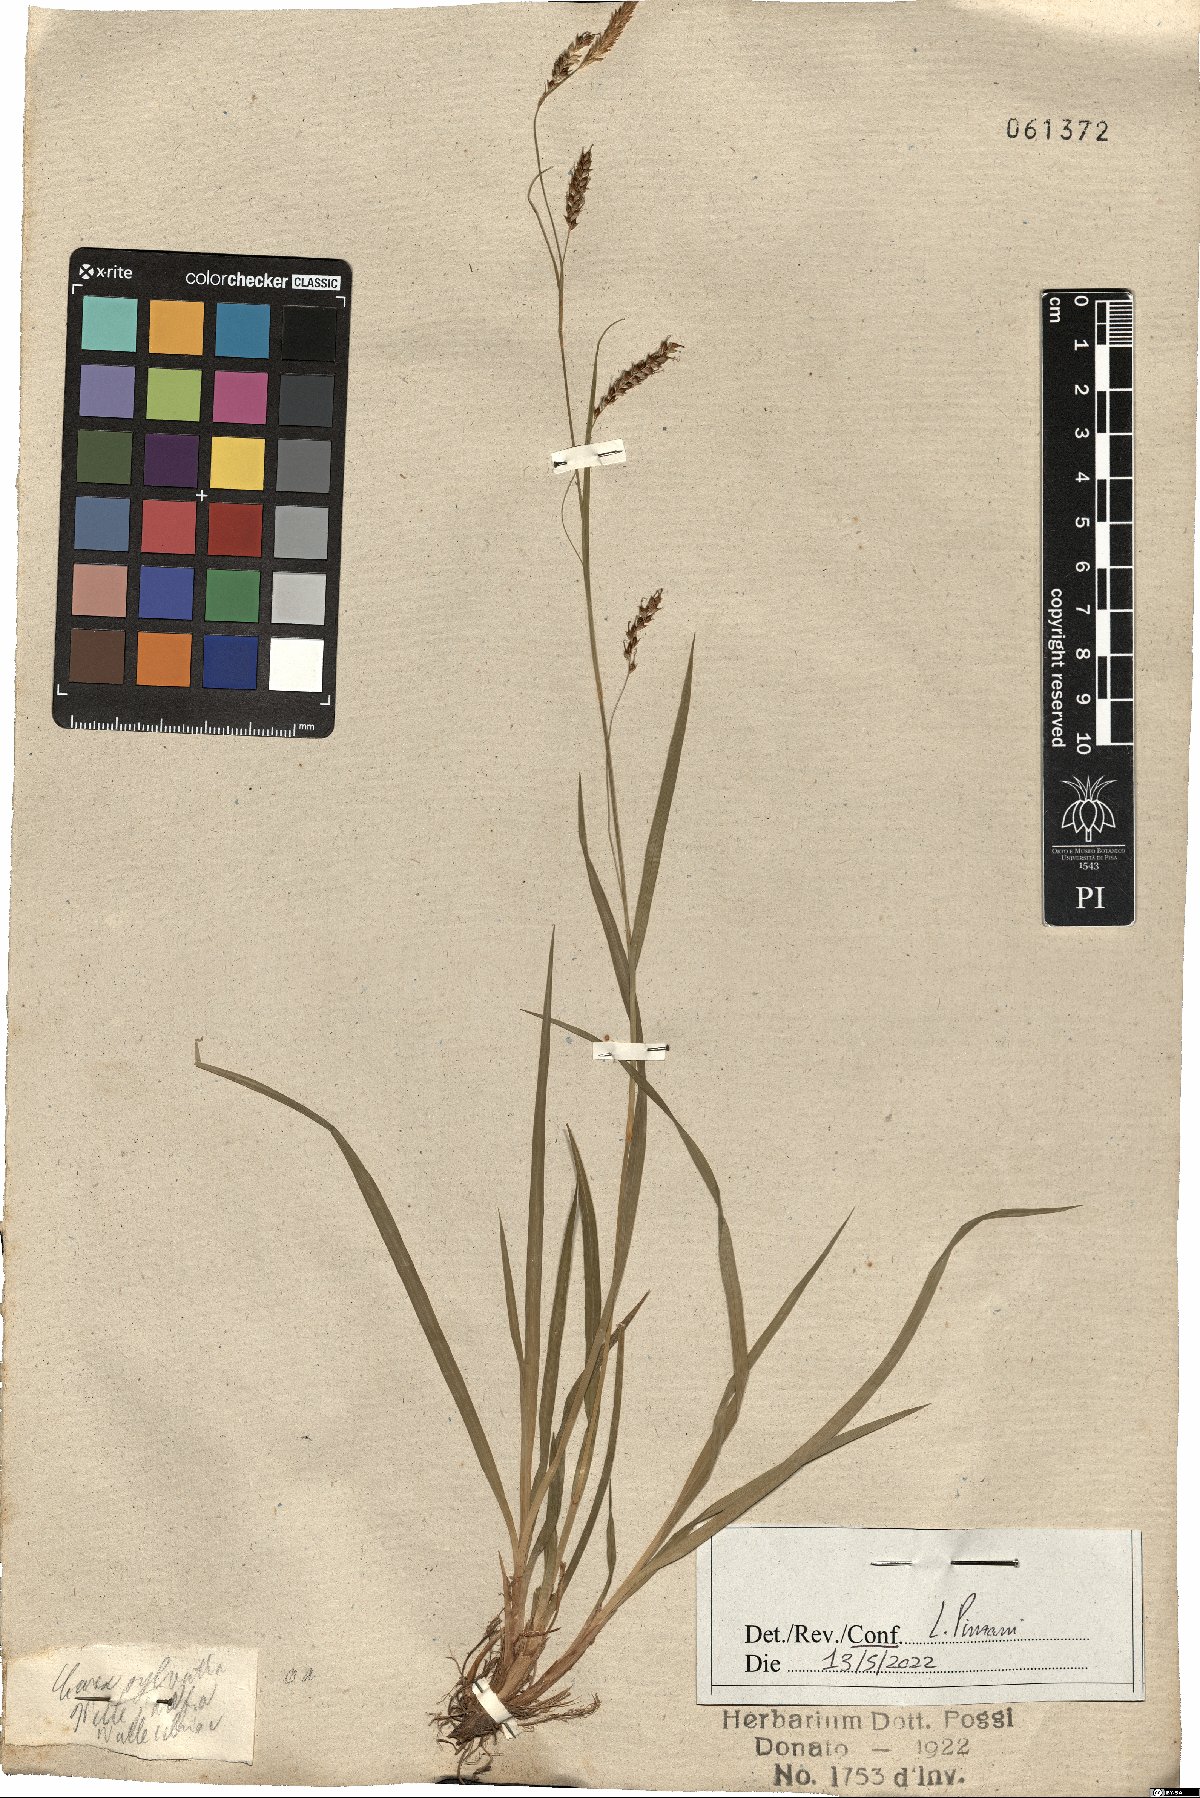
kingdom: Plantae
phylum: Tracheophyta
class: Liliopsida
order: Poales
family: Cyperaceae
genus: Carex
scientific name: Carex sylvatica
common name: Wood-sedge
